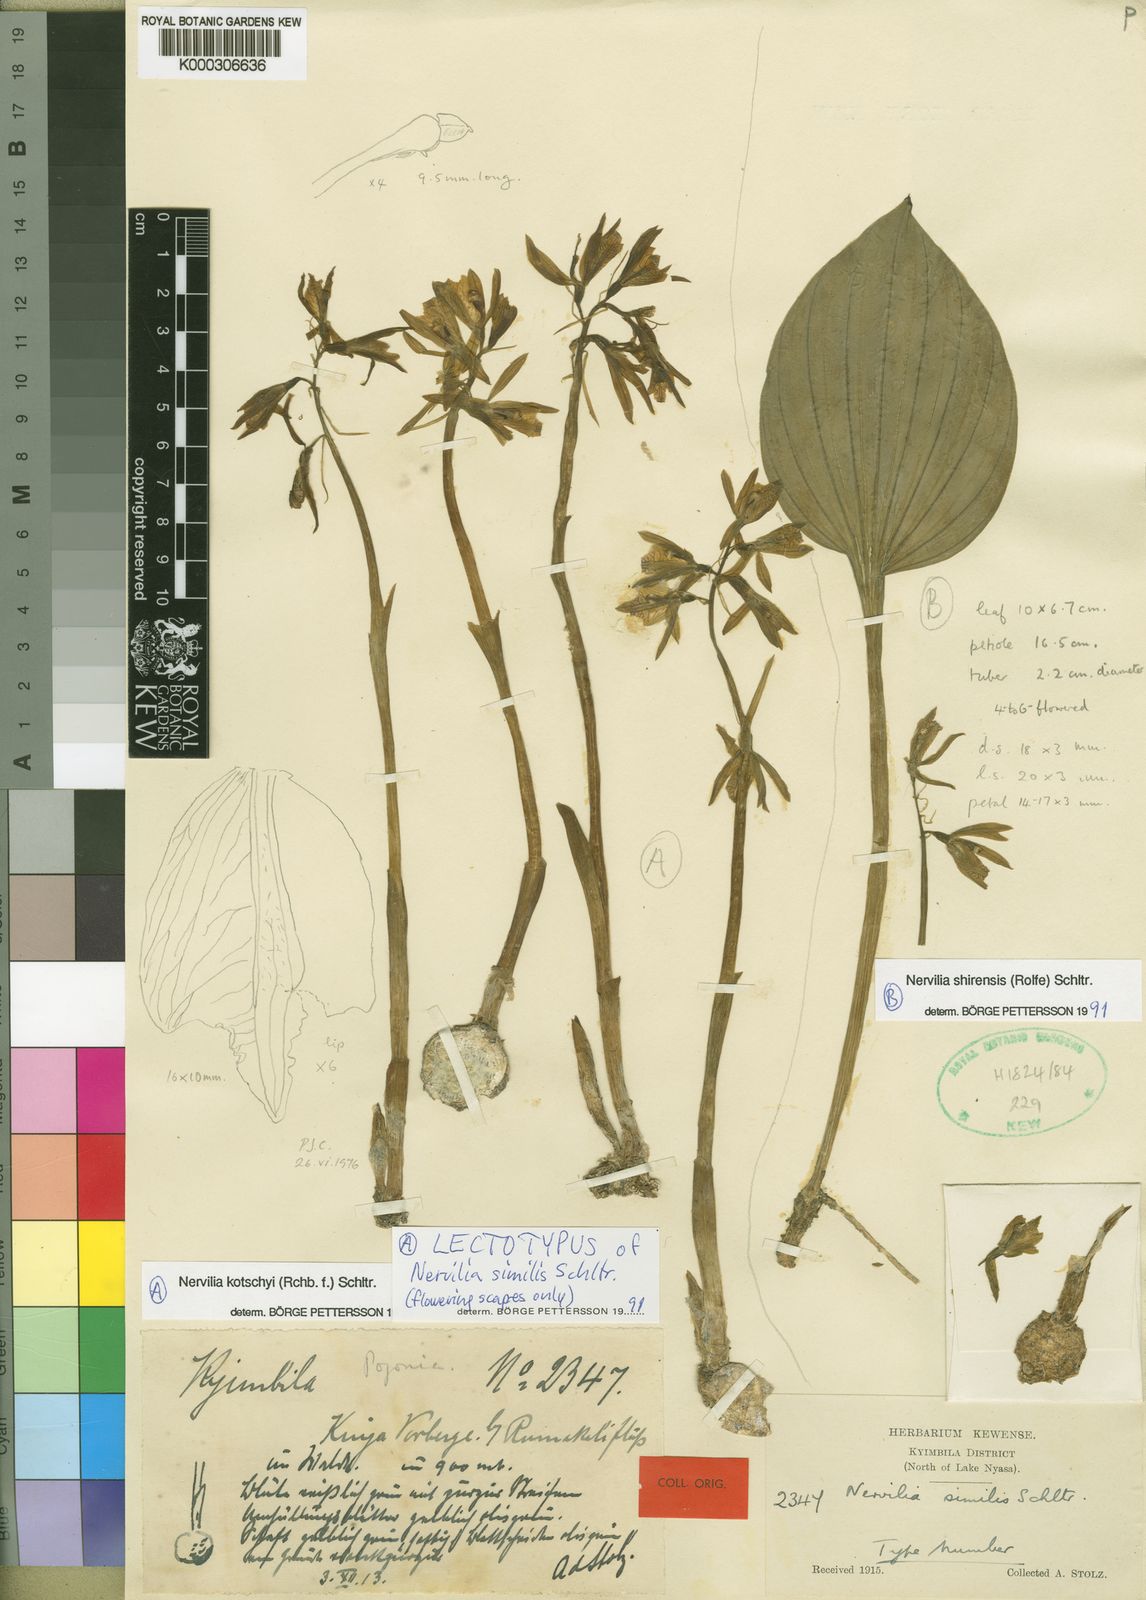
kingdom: Plantae
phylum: Tracheophyta
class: Liliopsida
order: Asparagales
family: Orchidaceae
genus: Nervilia
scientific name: Nervilia stolziana
